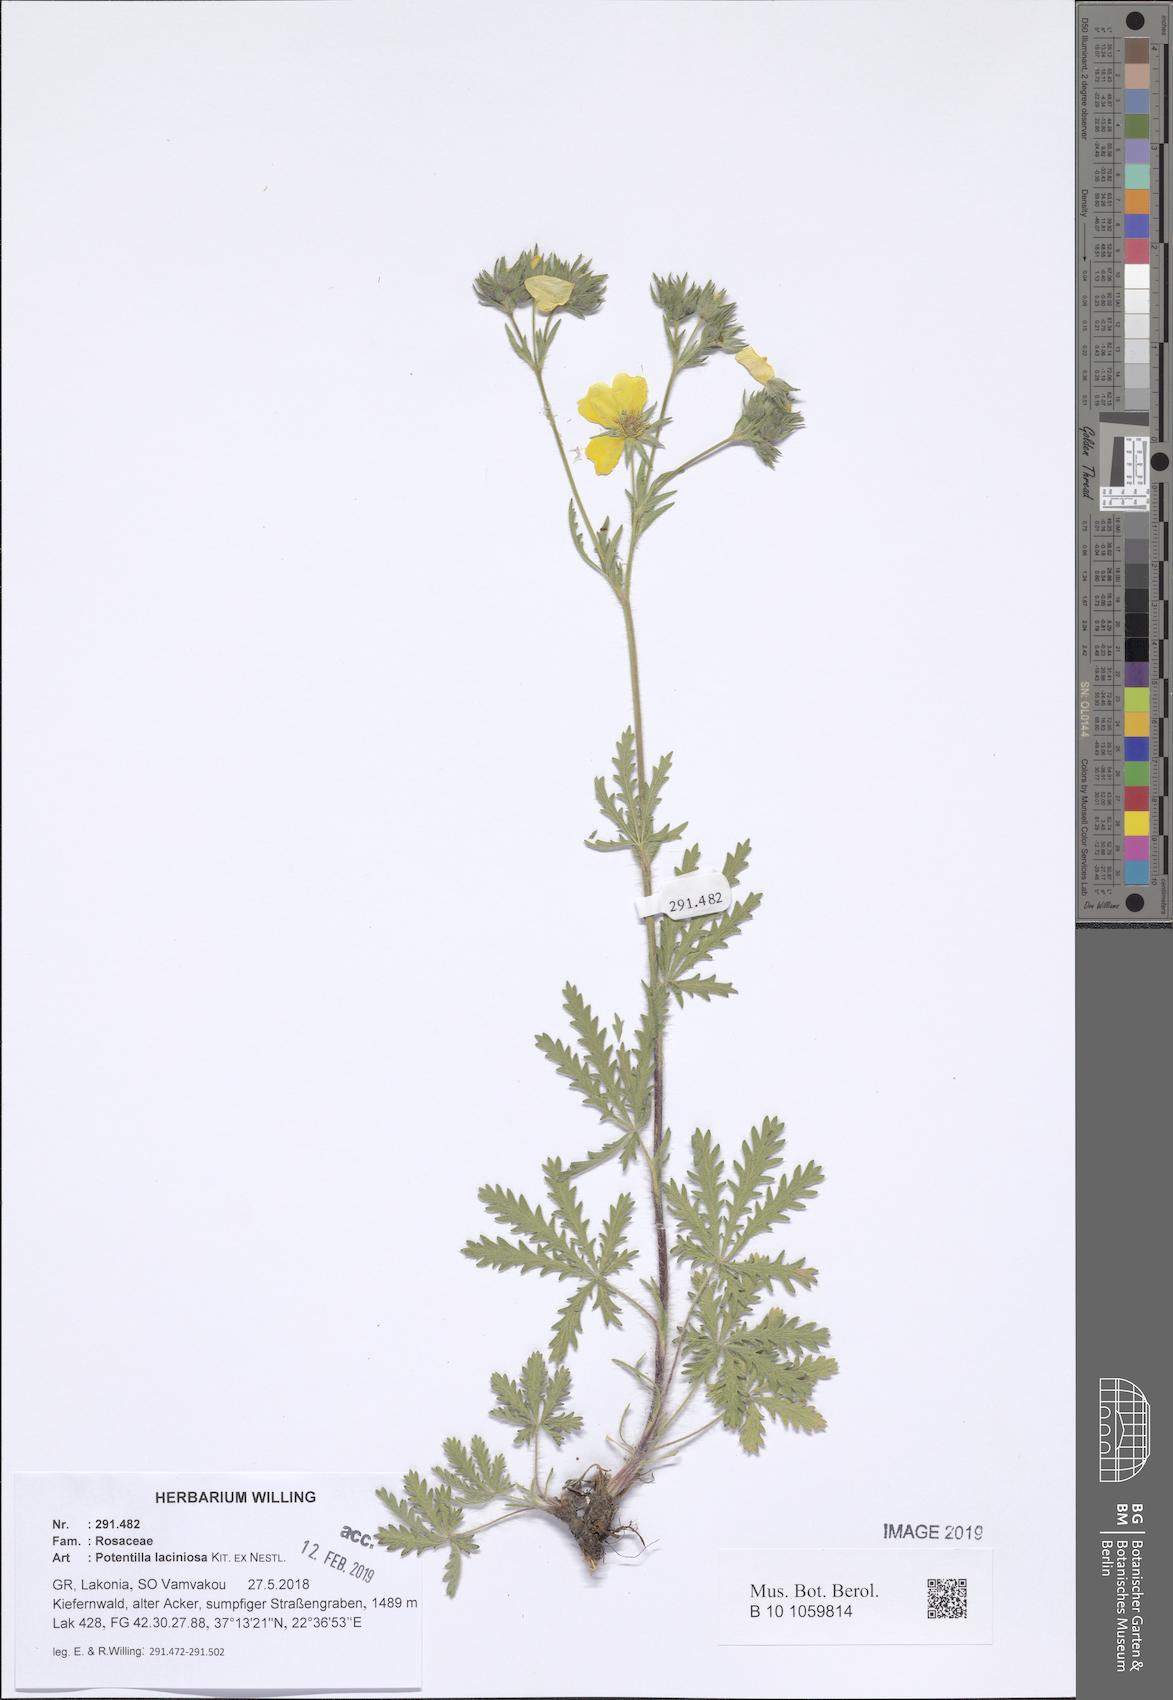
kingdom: Plantae
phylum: Tracheophyta
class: Magnoliopsida
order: Rosales
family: Rosaceae
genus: Potentilla
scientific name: Potentilla recta
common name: Sulphur cinquefoil
